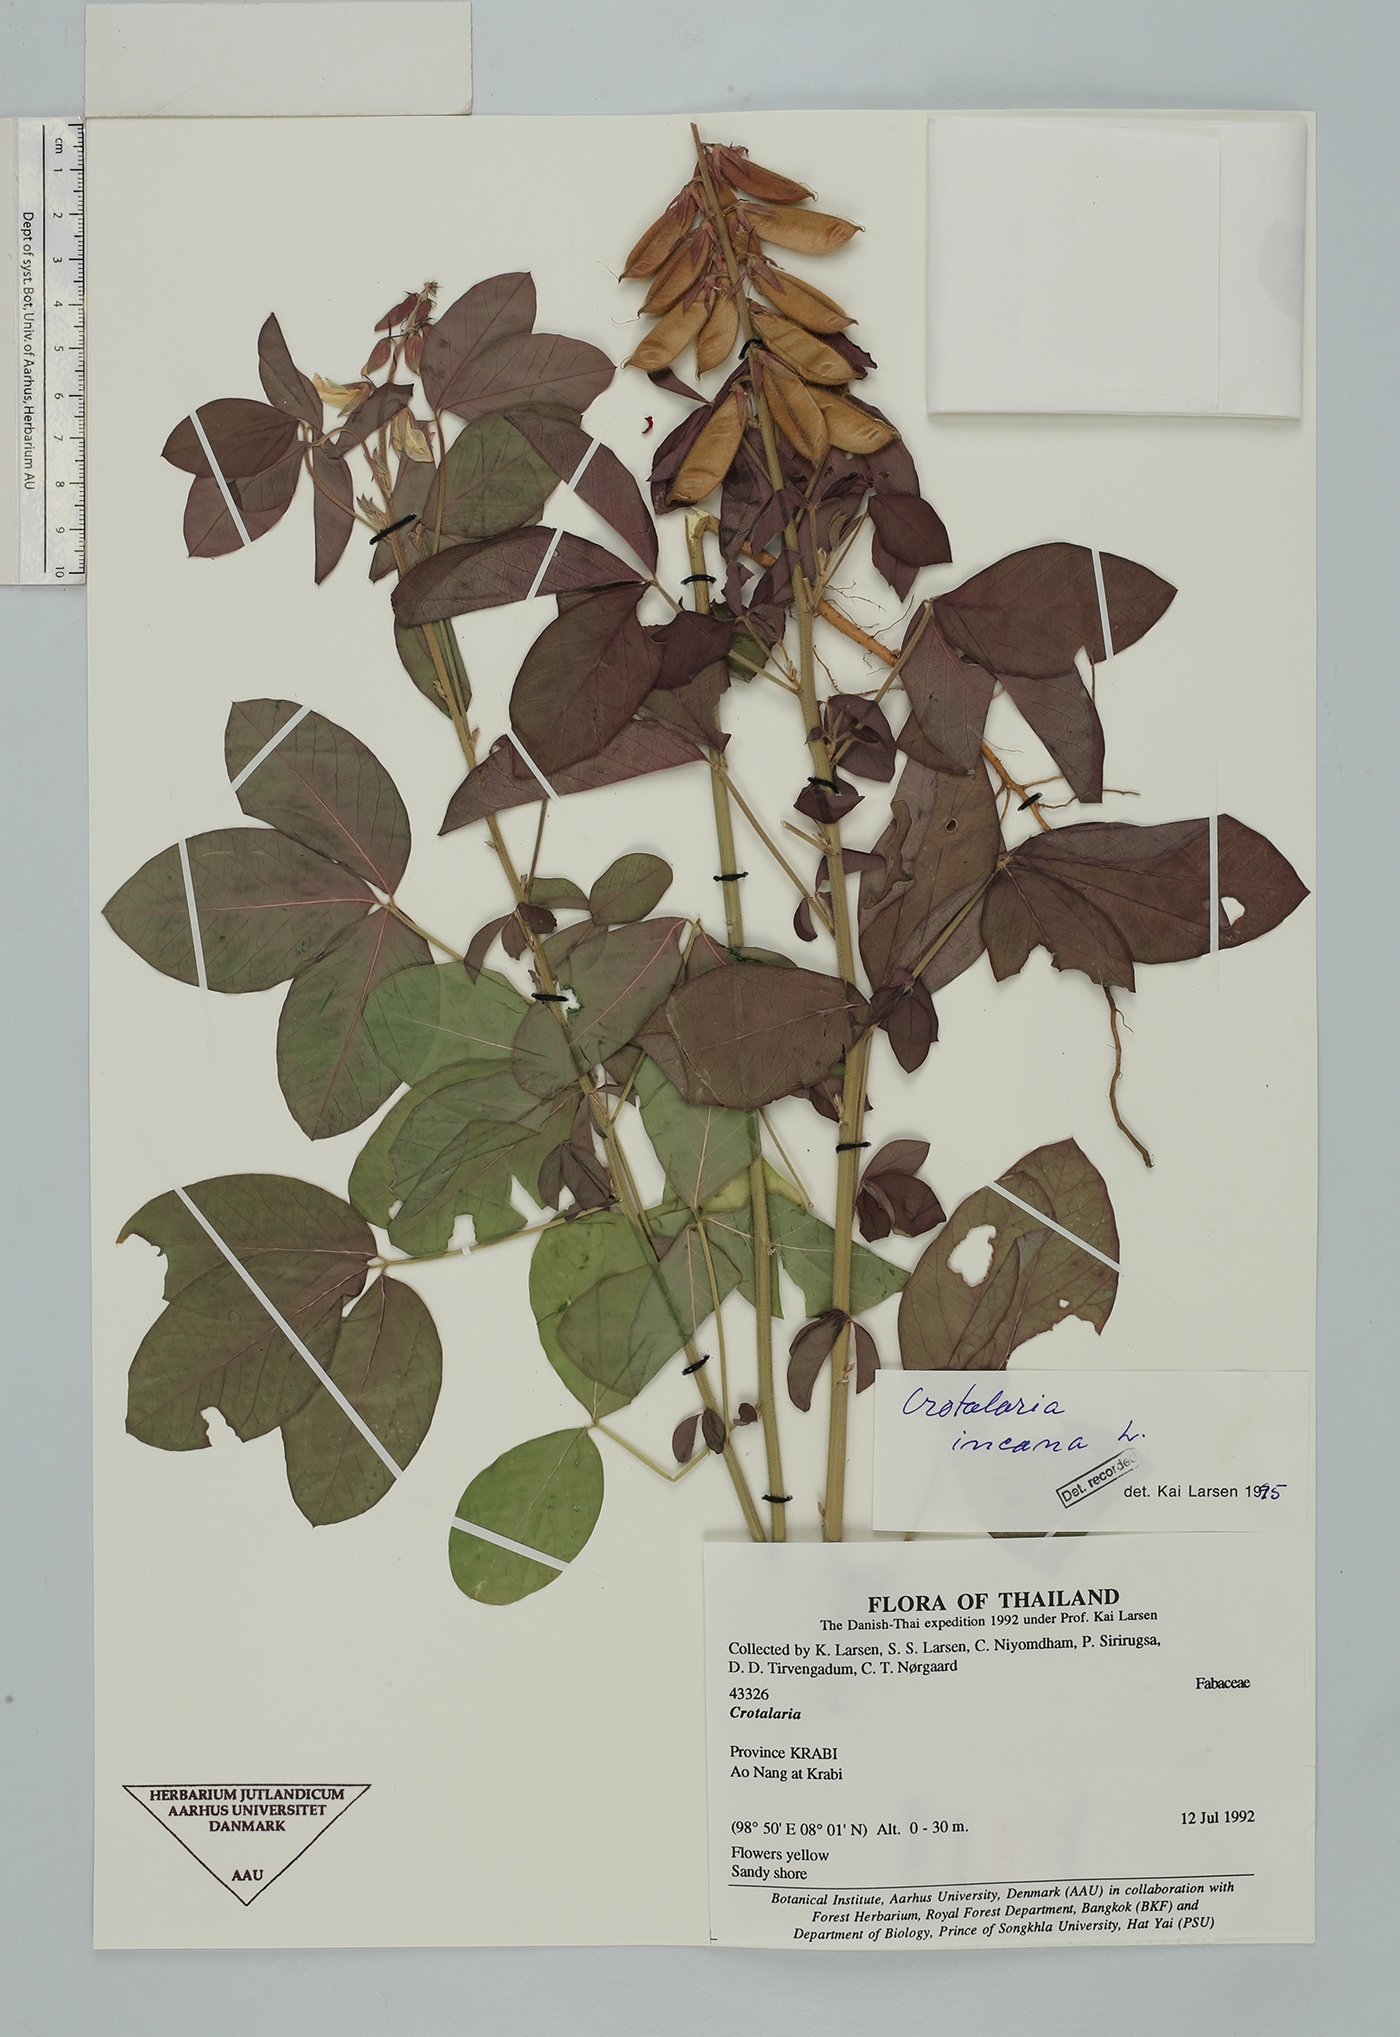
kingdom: Plantae
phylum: Tracheophyta
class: Magnoliopsida
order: Fabales
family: Fabaceae
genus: Crotalaria
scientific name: Crotalaria incana
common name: Shakeshake
